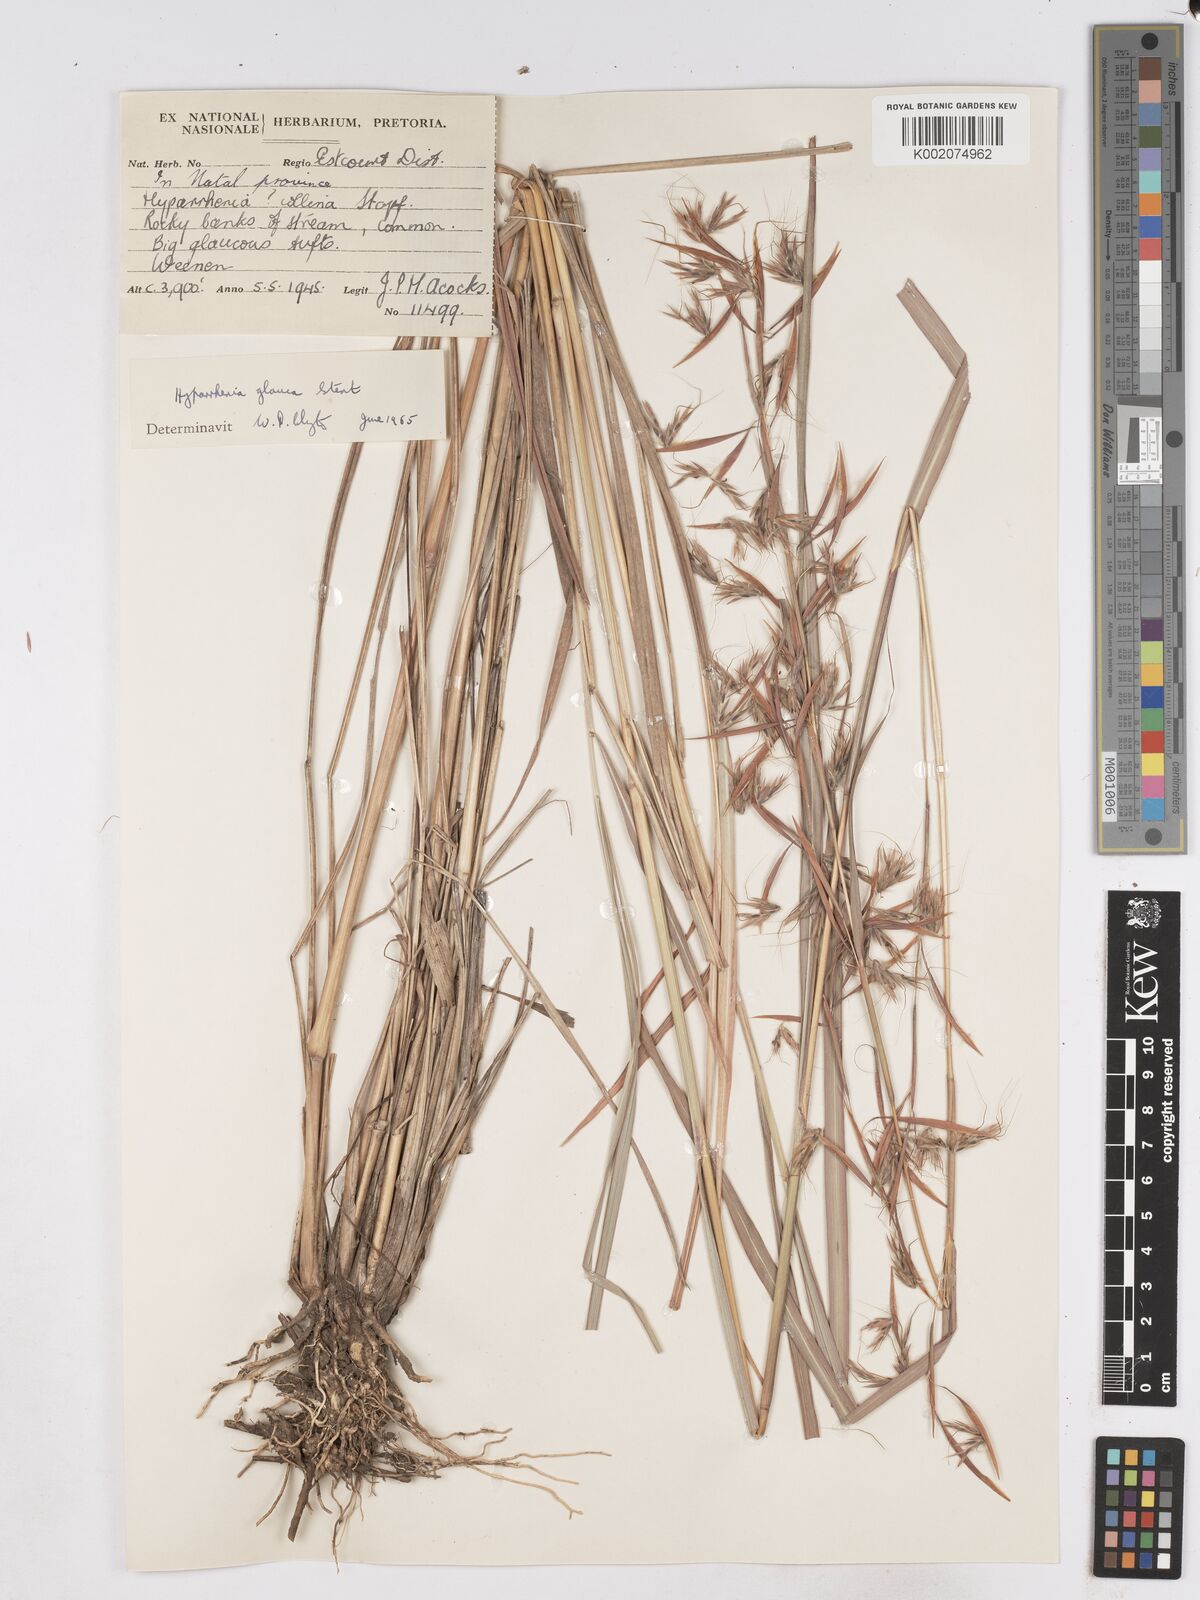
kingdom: Plantae
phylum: Tracheophyta
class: Liliopsida
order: Poales
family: Poaceae
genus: Hyparrhenia
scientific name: Hyparrhenia tamba
